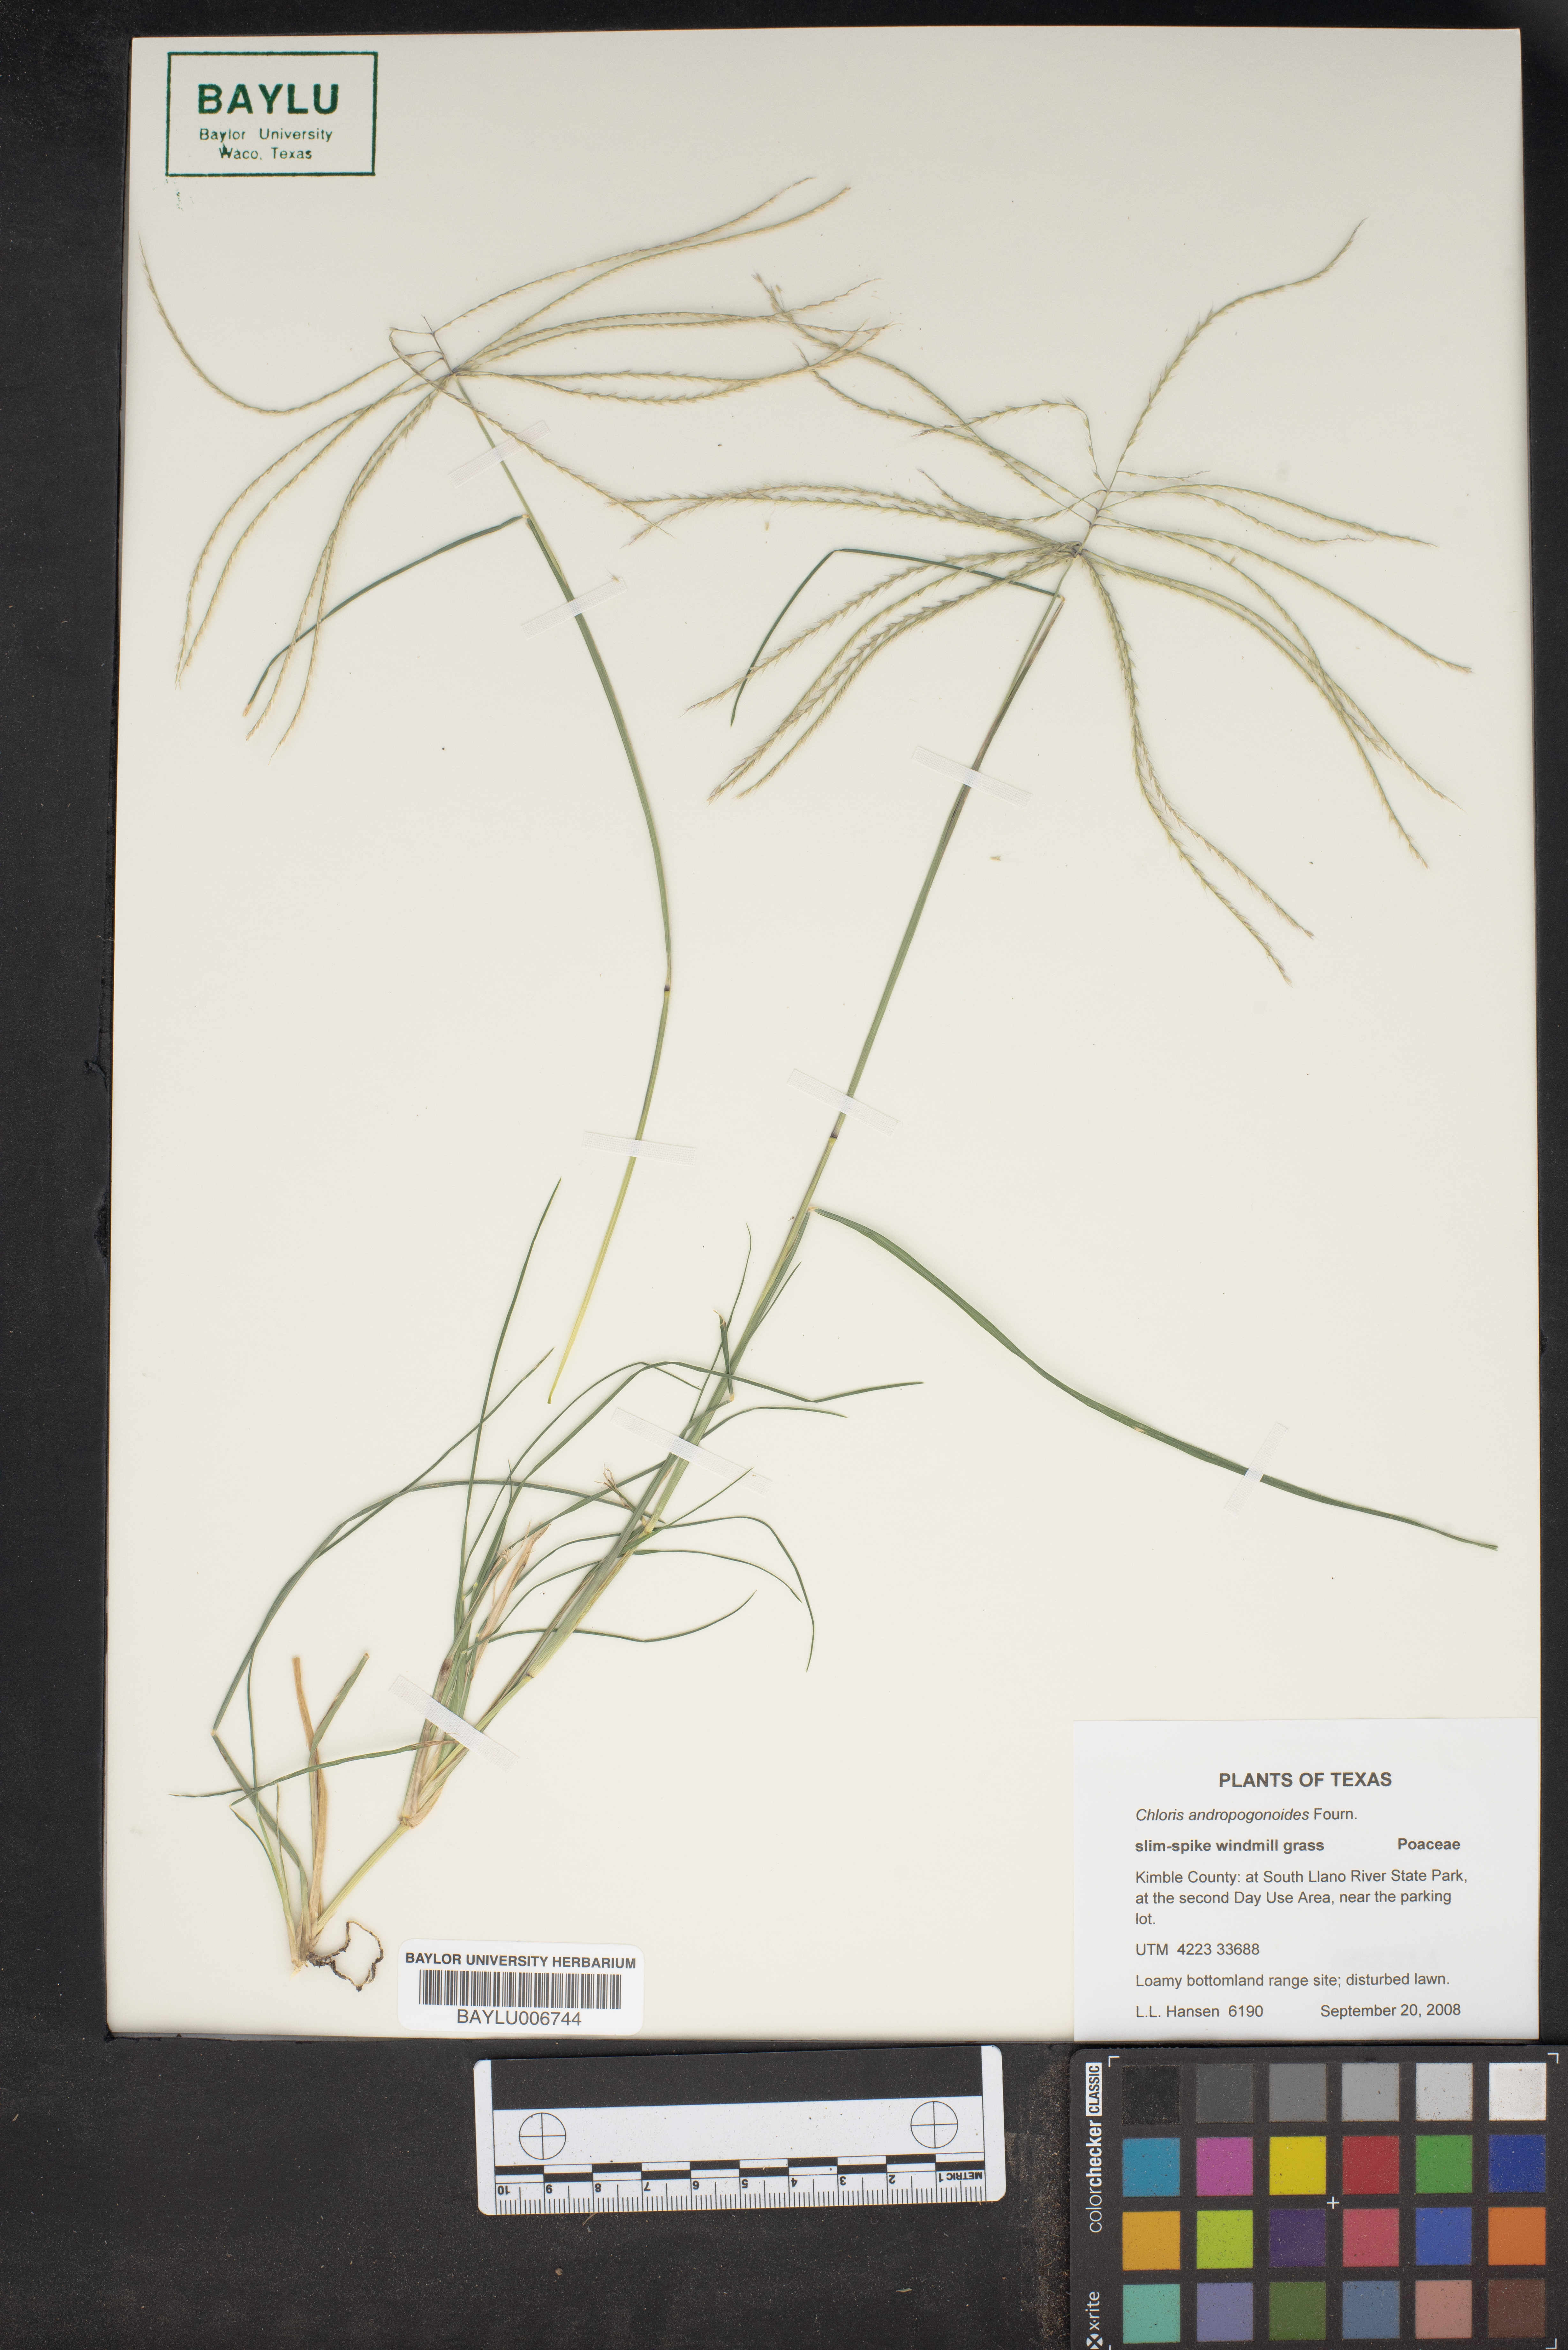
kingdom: Plantae
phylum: Tracheophyta
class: Liliopsida
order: Poales
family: Poaceae
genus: Chloris
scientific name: Chloris andropogonoides
